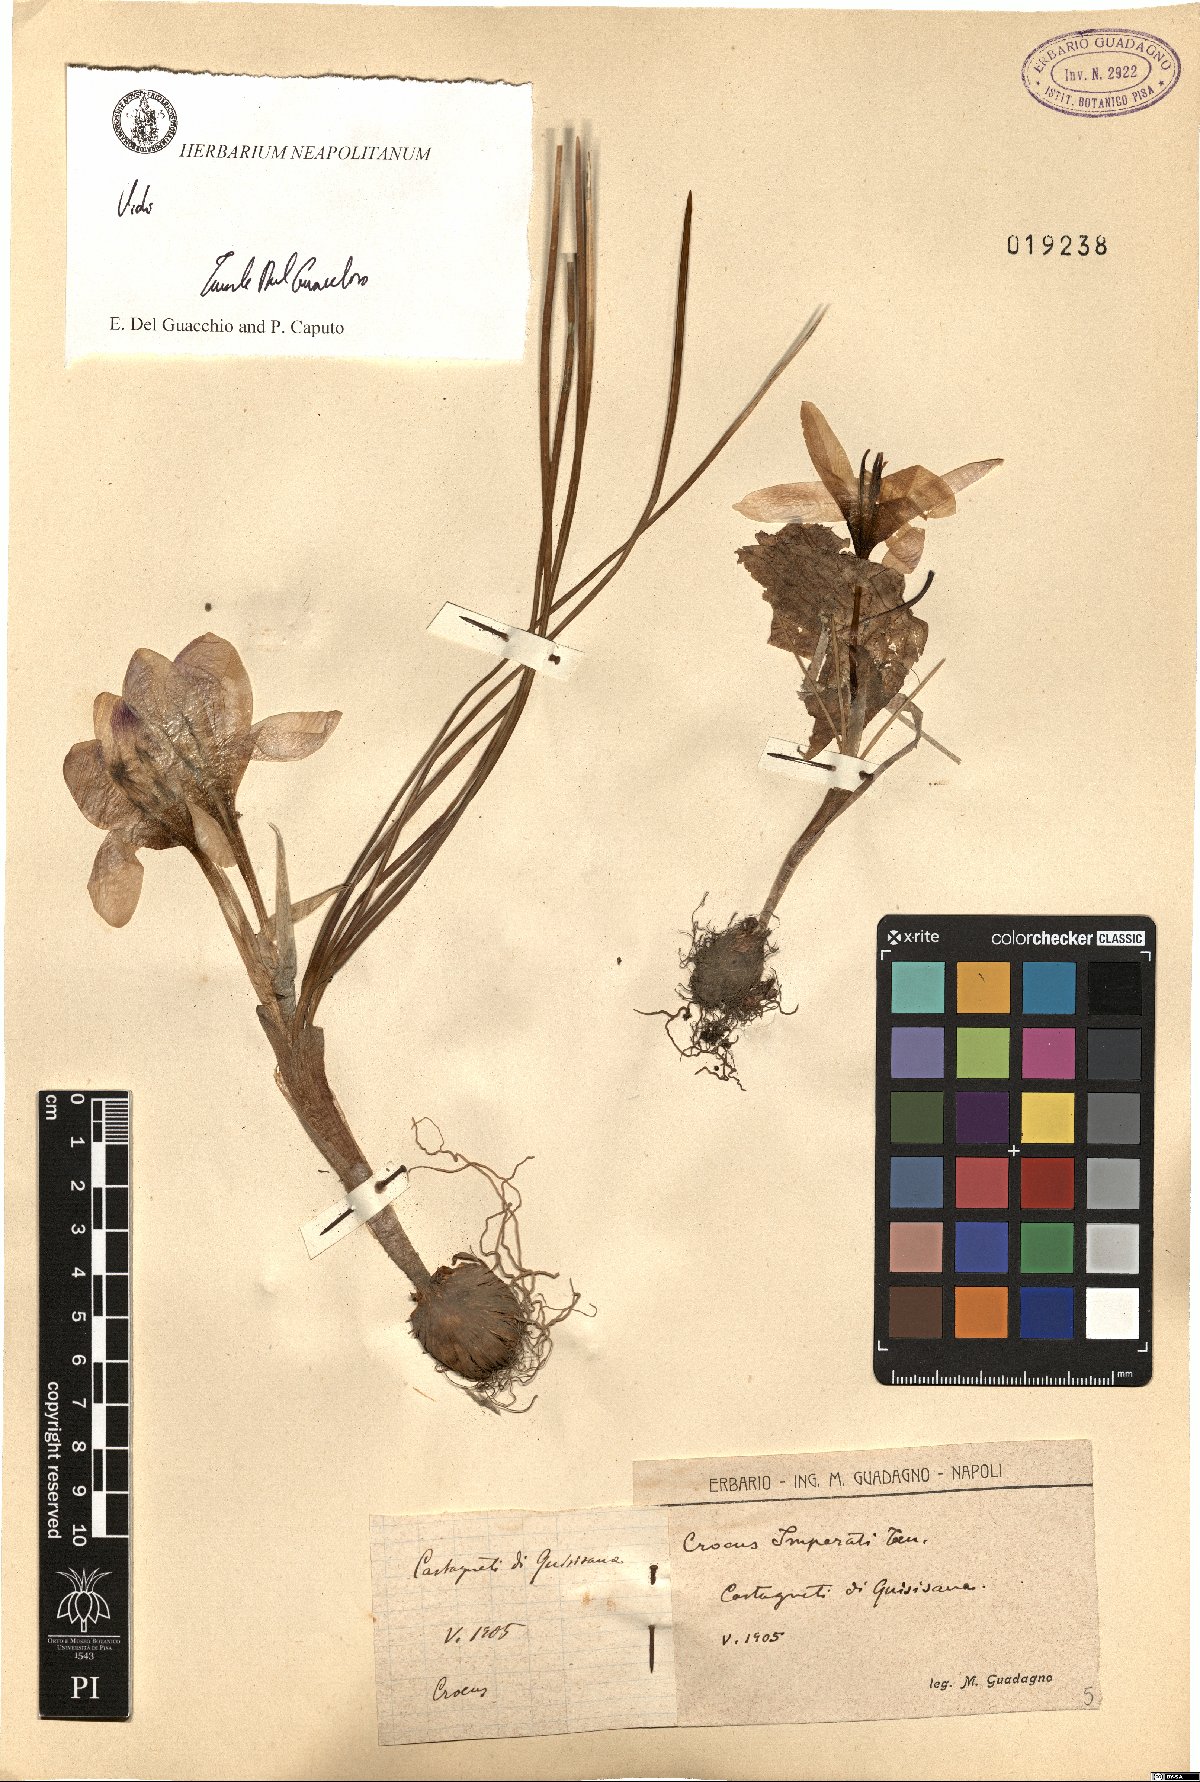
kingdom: Plantae
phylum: Tracheophyta
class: Liliopsida
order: Asparagales
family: Iridaceae
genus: Crocus
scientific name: Crocus imperati
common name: Early crocus
